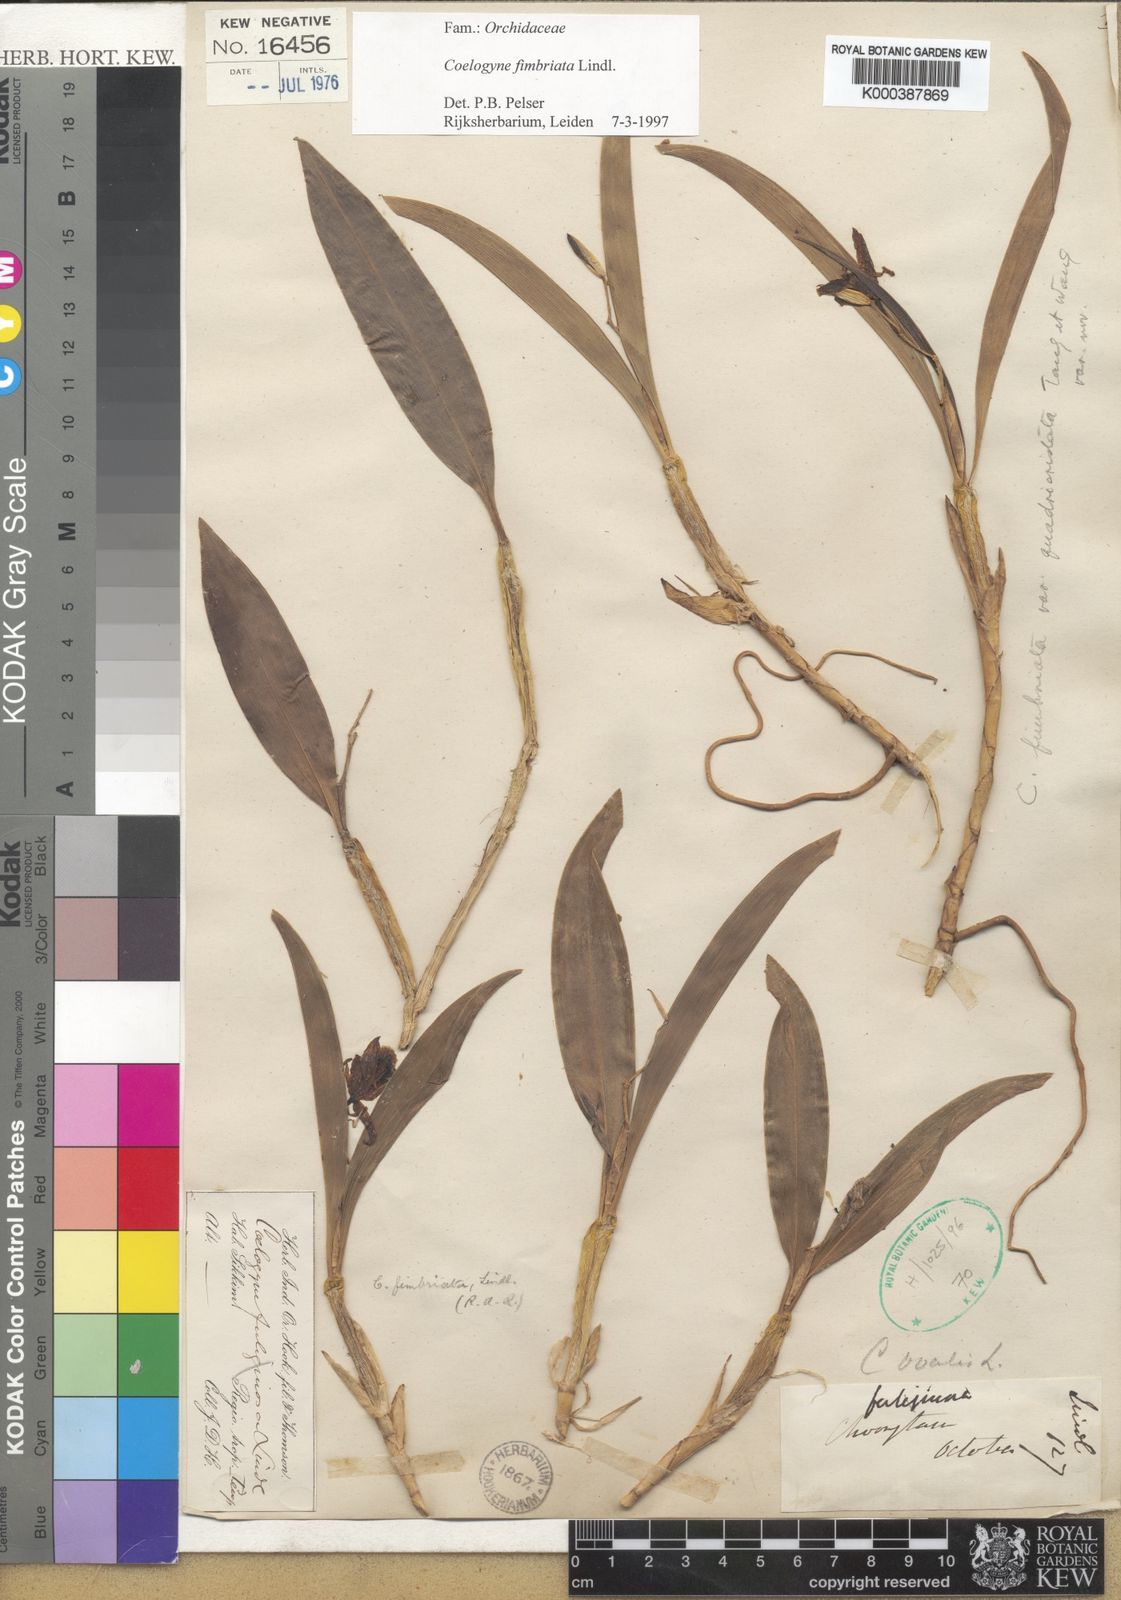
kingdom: Plantae
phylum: Tracheophyta
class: Liliopsida
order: Asparagales
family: Orchidaceae
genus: Coelogyne
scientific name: Coelogyne fimbriata
